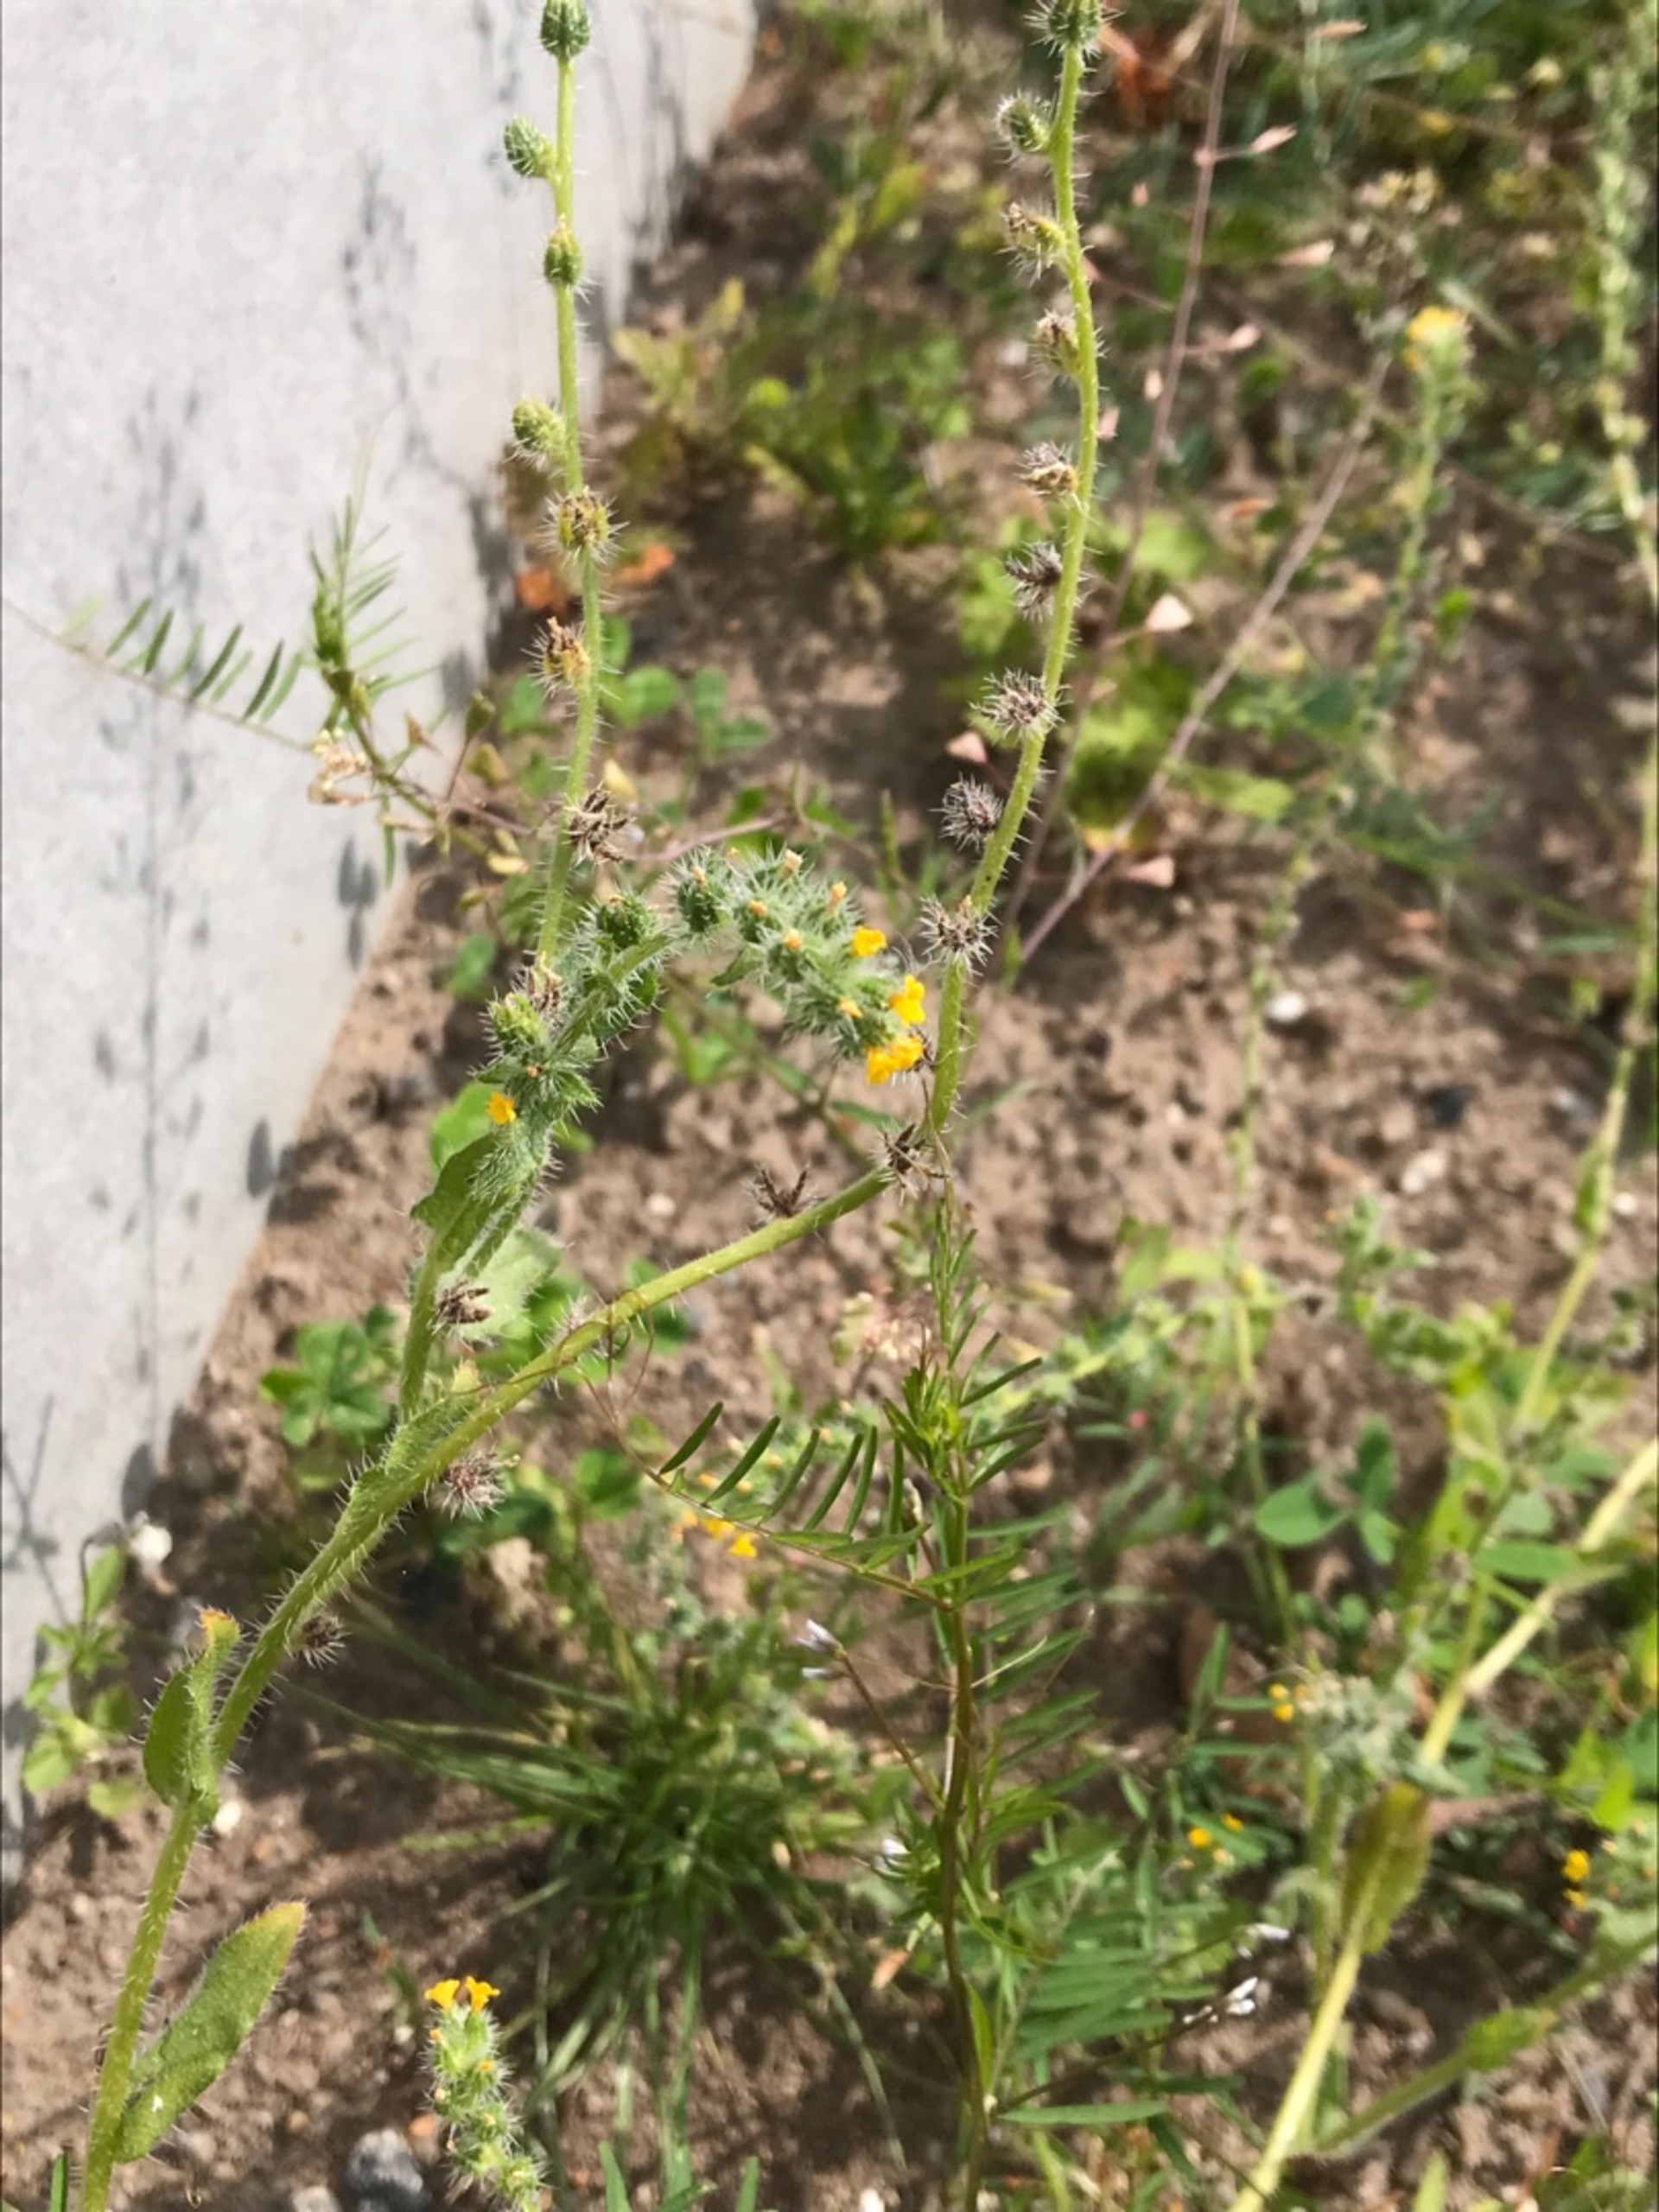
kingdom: Plantae
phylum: Tracheophyta
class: Magnoliopsida
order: Boraginales
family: Boraginaceae
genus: Amsinckia
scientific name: Amsinckia menziesii
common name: Småblomstret gulurt
